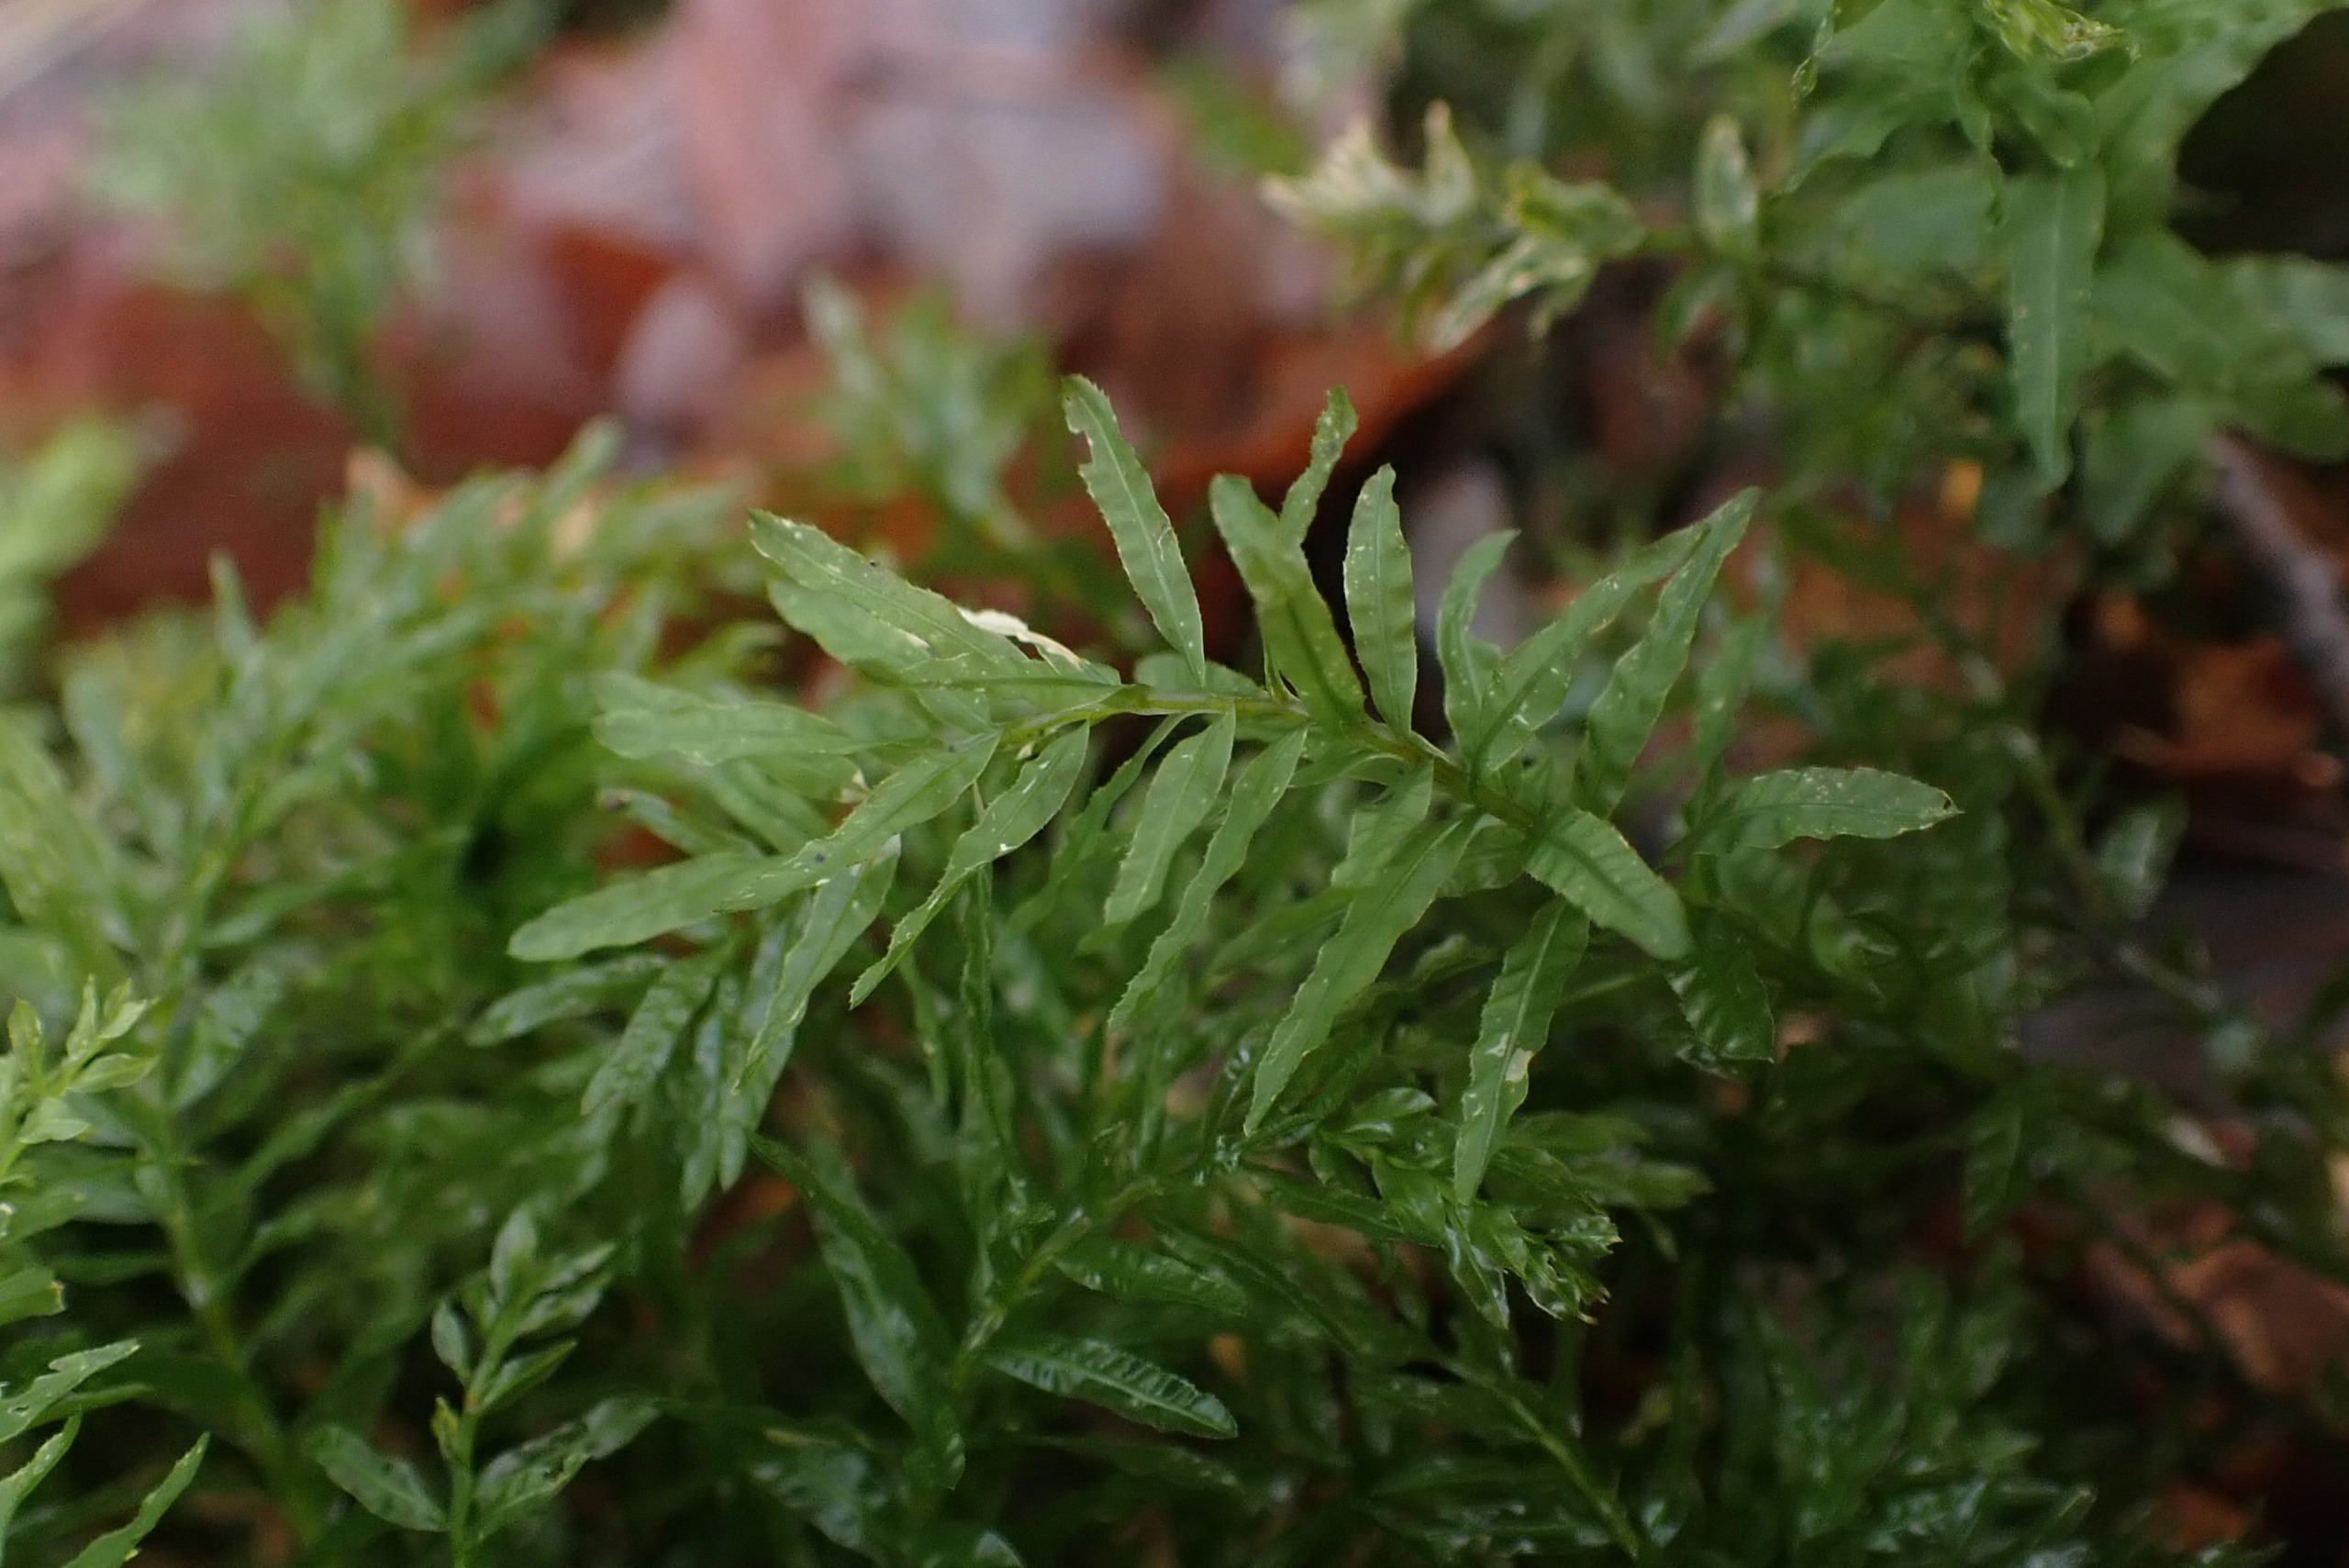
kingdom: Plantae
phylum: Bryophyta
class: Bryopsida
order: Bryales
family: Mniaceae
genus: Plagiomnium
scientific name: Plagiomnium undulatum
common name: Bølget krybstjerne
